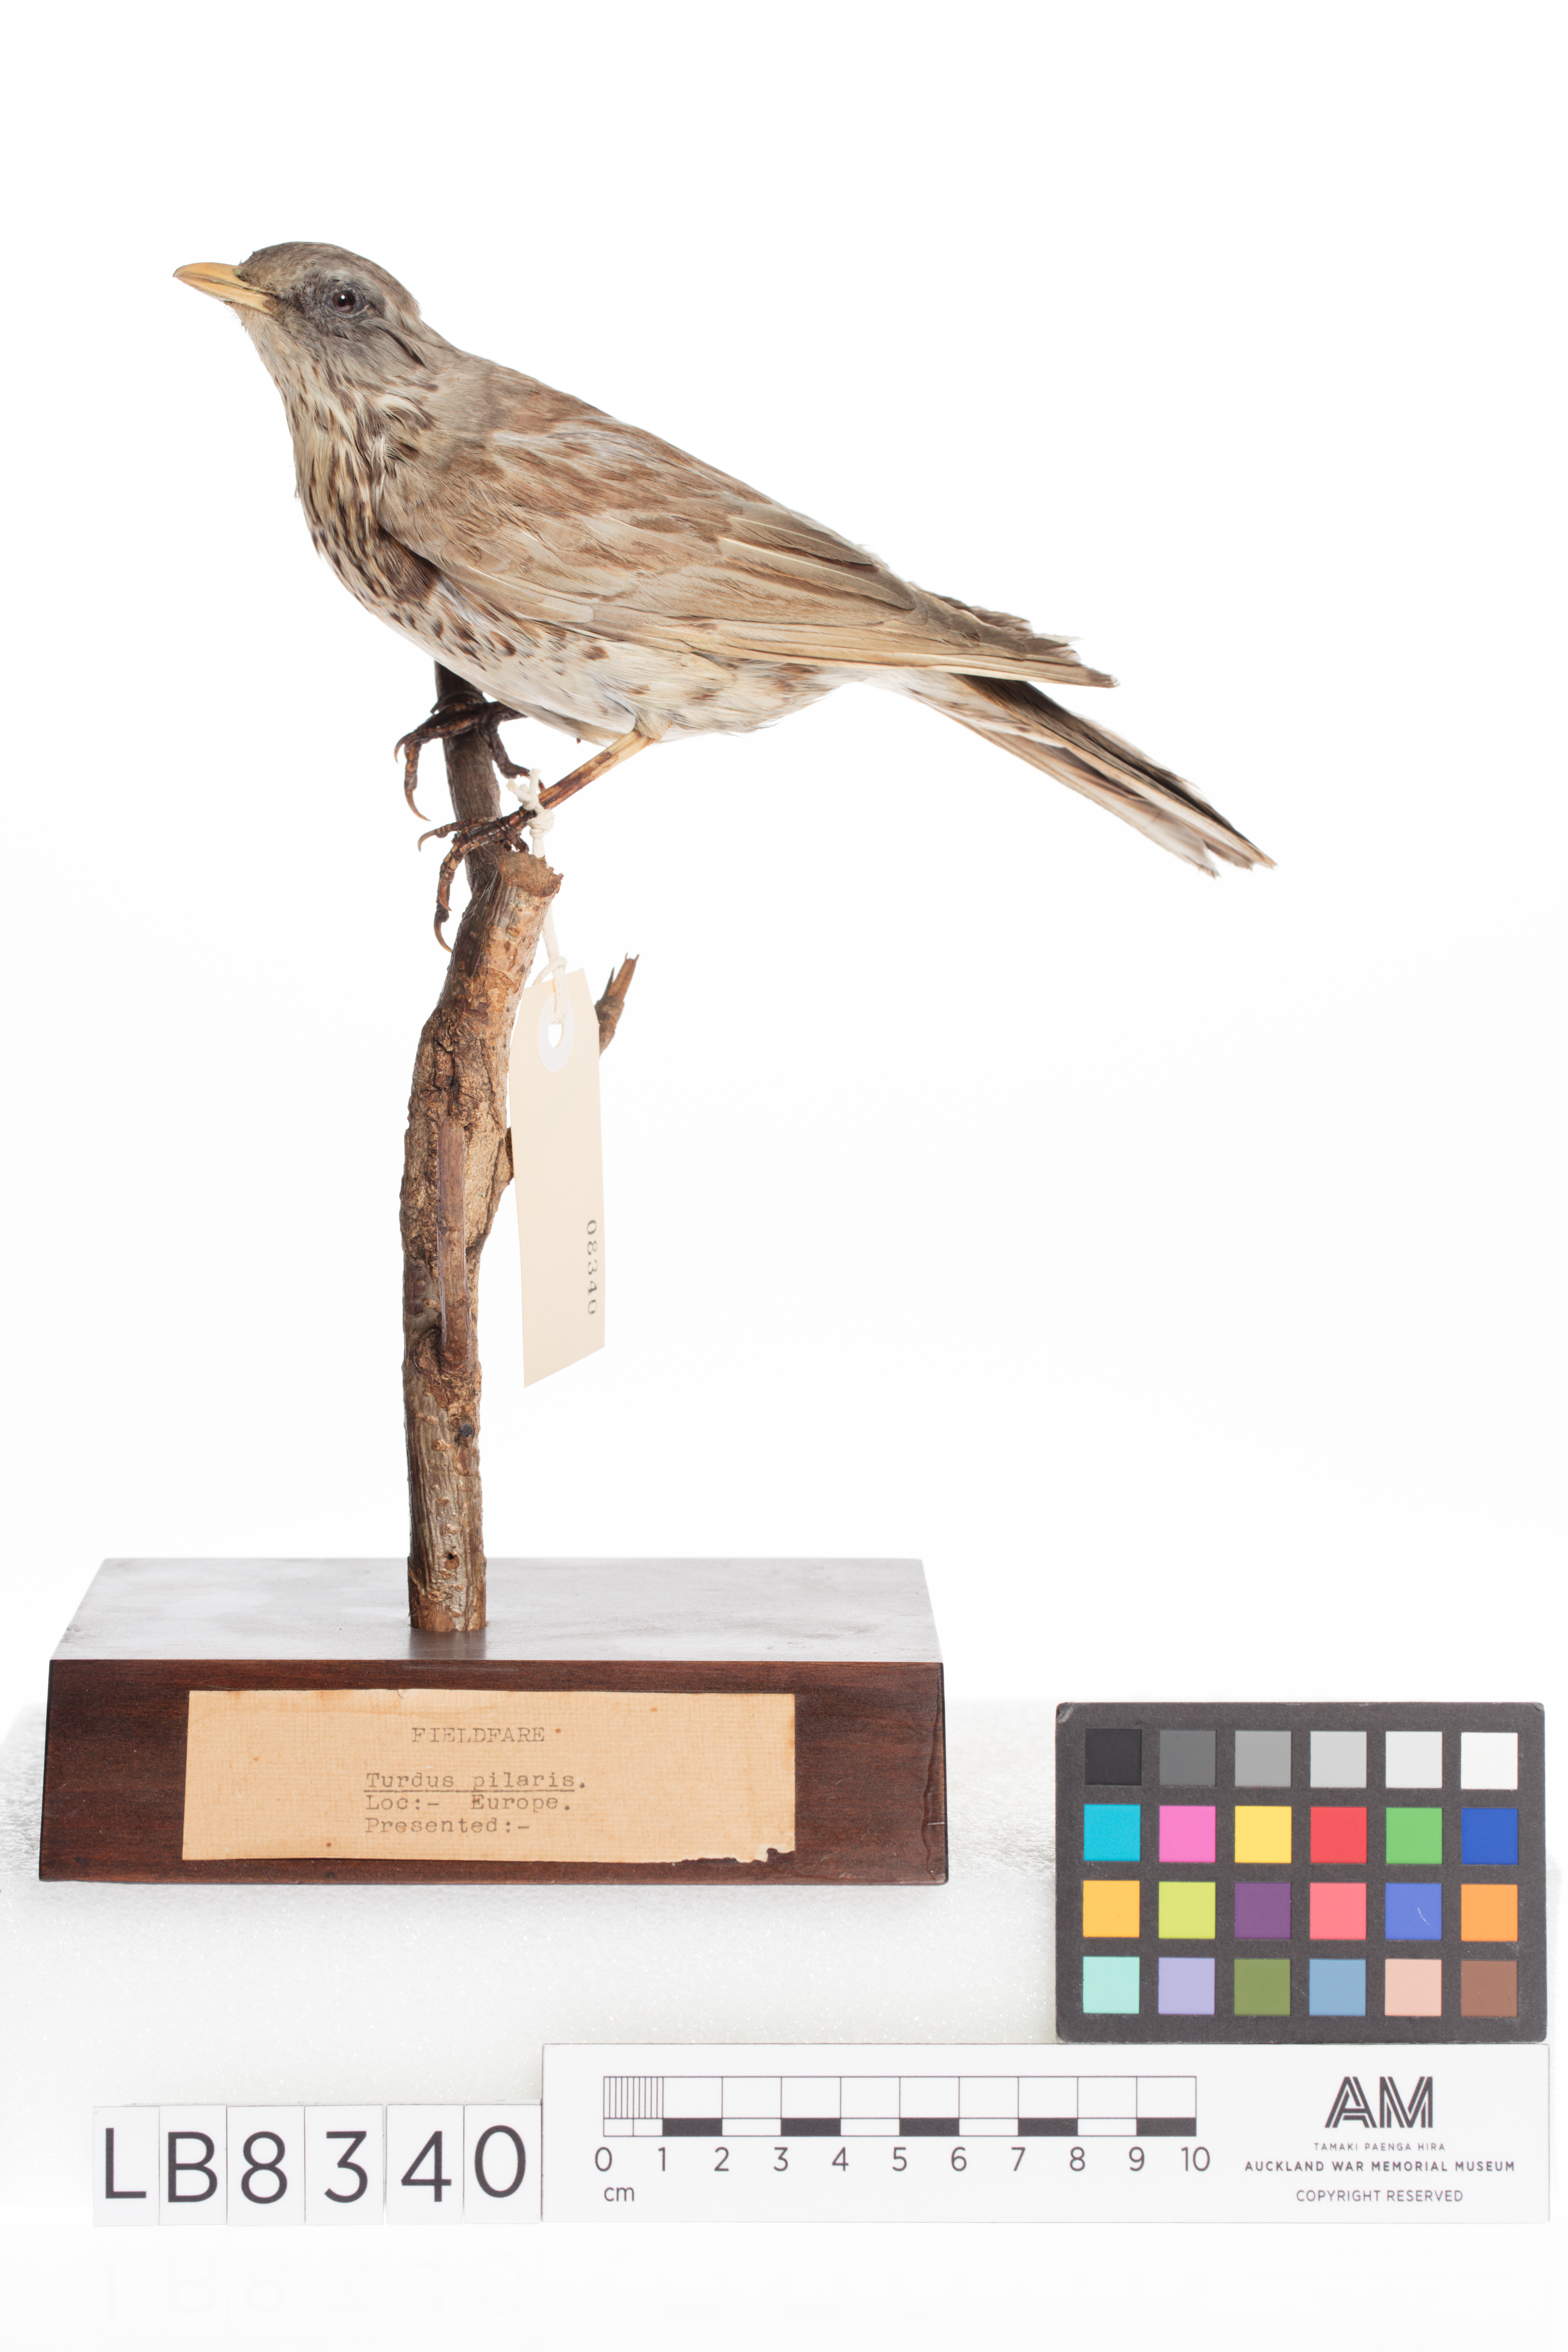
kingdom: Animalia
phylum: Chordata
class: Aves
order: Passeriformes
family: Turdidae
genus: Turdus
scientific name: Turdus pilaris
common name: Fieldfare
